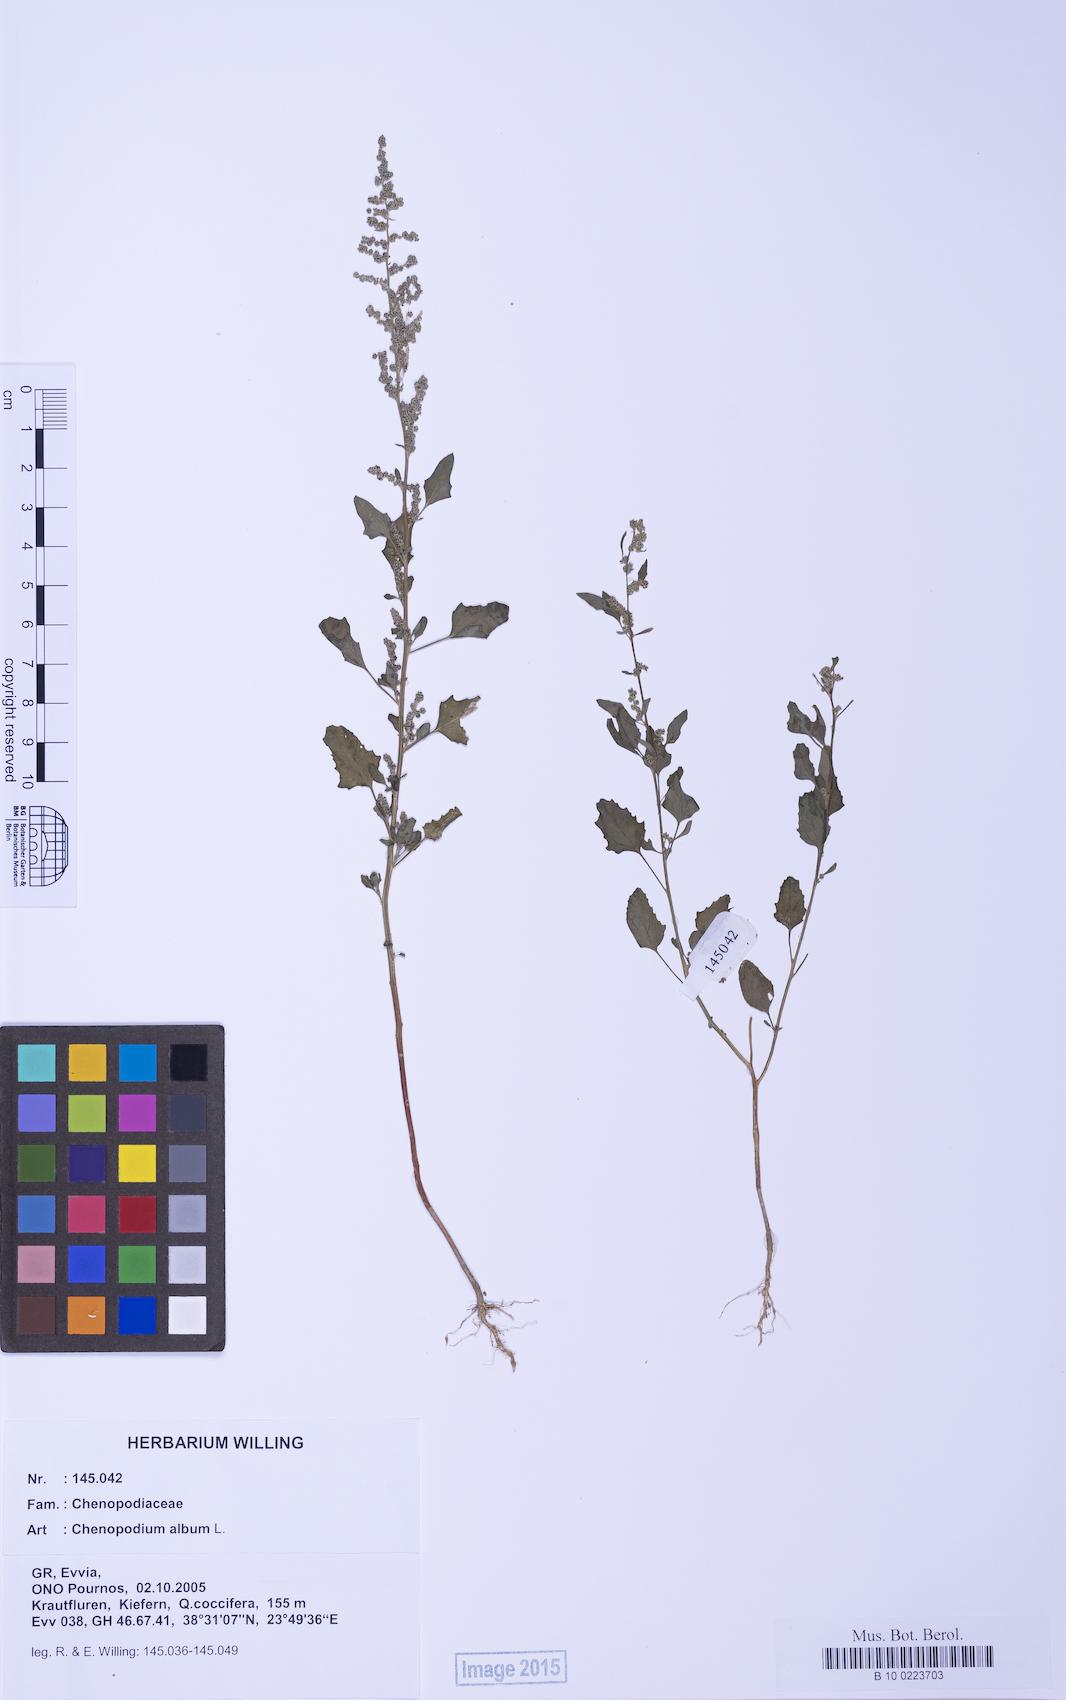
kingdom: Plantae
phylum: Tracheophyta
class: Magnoliopsida
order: Caryophyllales
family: Amaranthaceae
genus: Chenopodium
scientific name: Chenopodium album
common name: Fat-hen
